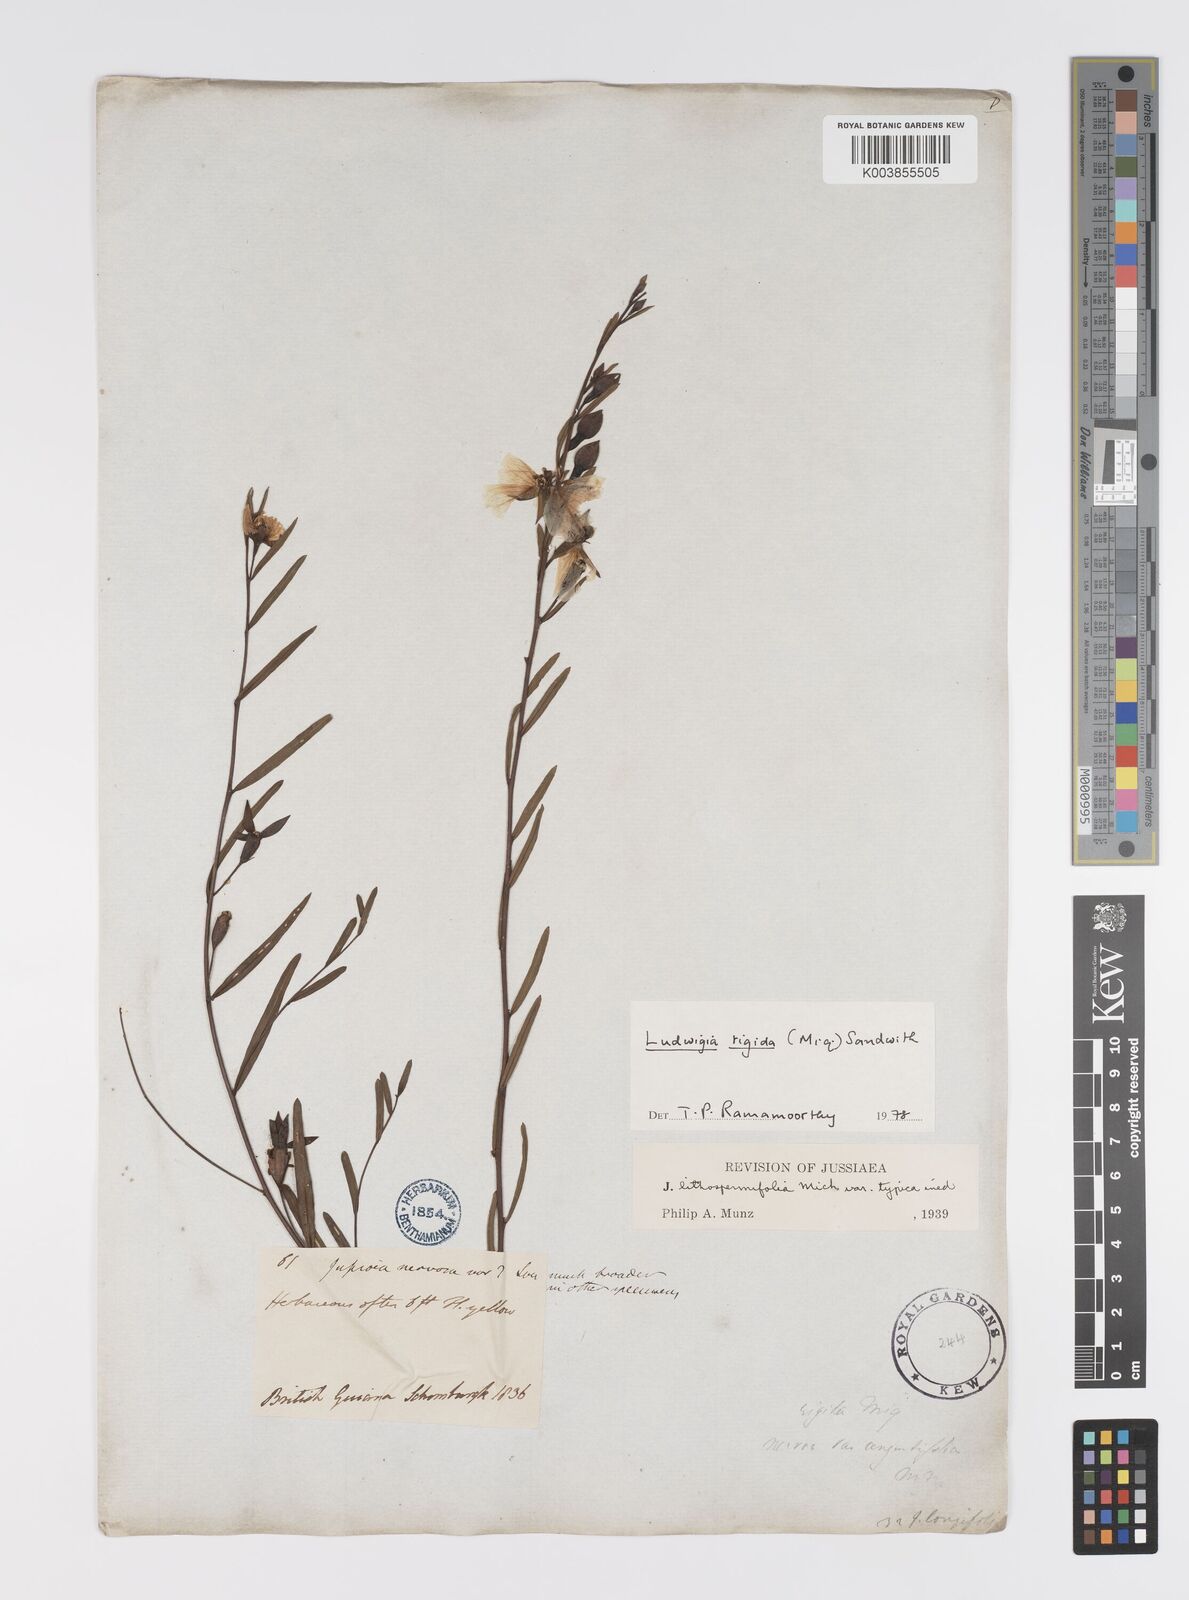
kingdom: Plantae
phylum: Tracheophyta
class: Magnoliopsida
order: Myrtales
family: Onagraceae
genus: Ludwigia
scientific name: Ludwigia rigida
